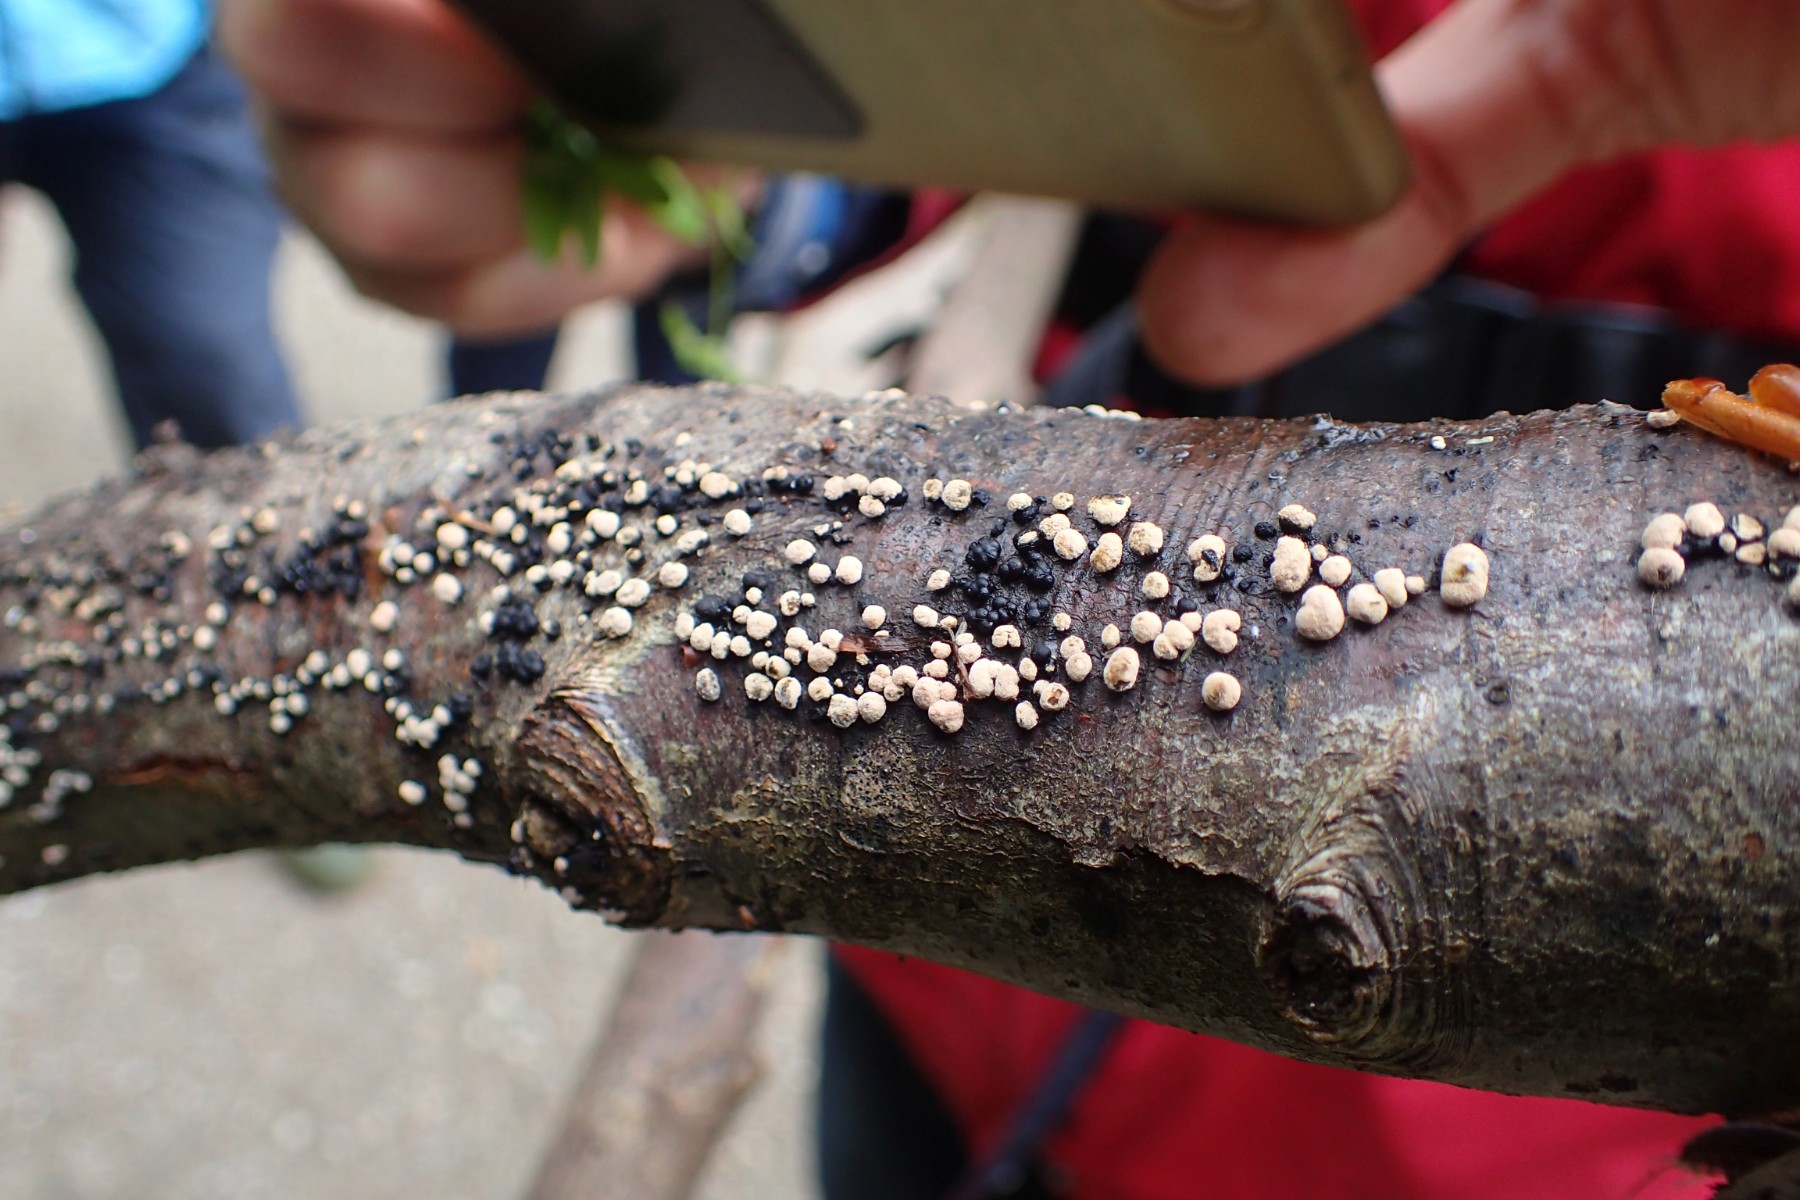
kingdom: Fungi
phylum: Ascomycota
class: Sordariomycetes
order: Xylariales
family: Hypoxylaceae
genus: Jackrogersella
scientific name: Jackrogersella cohaerens
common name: sammenflydende kulbær
